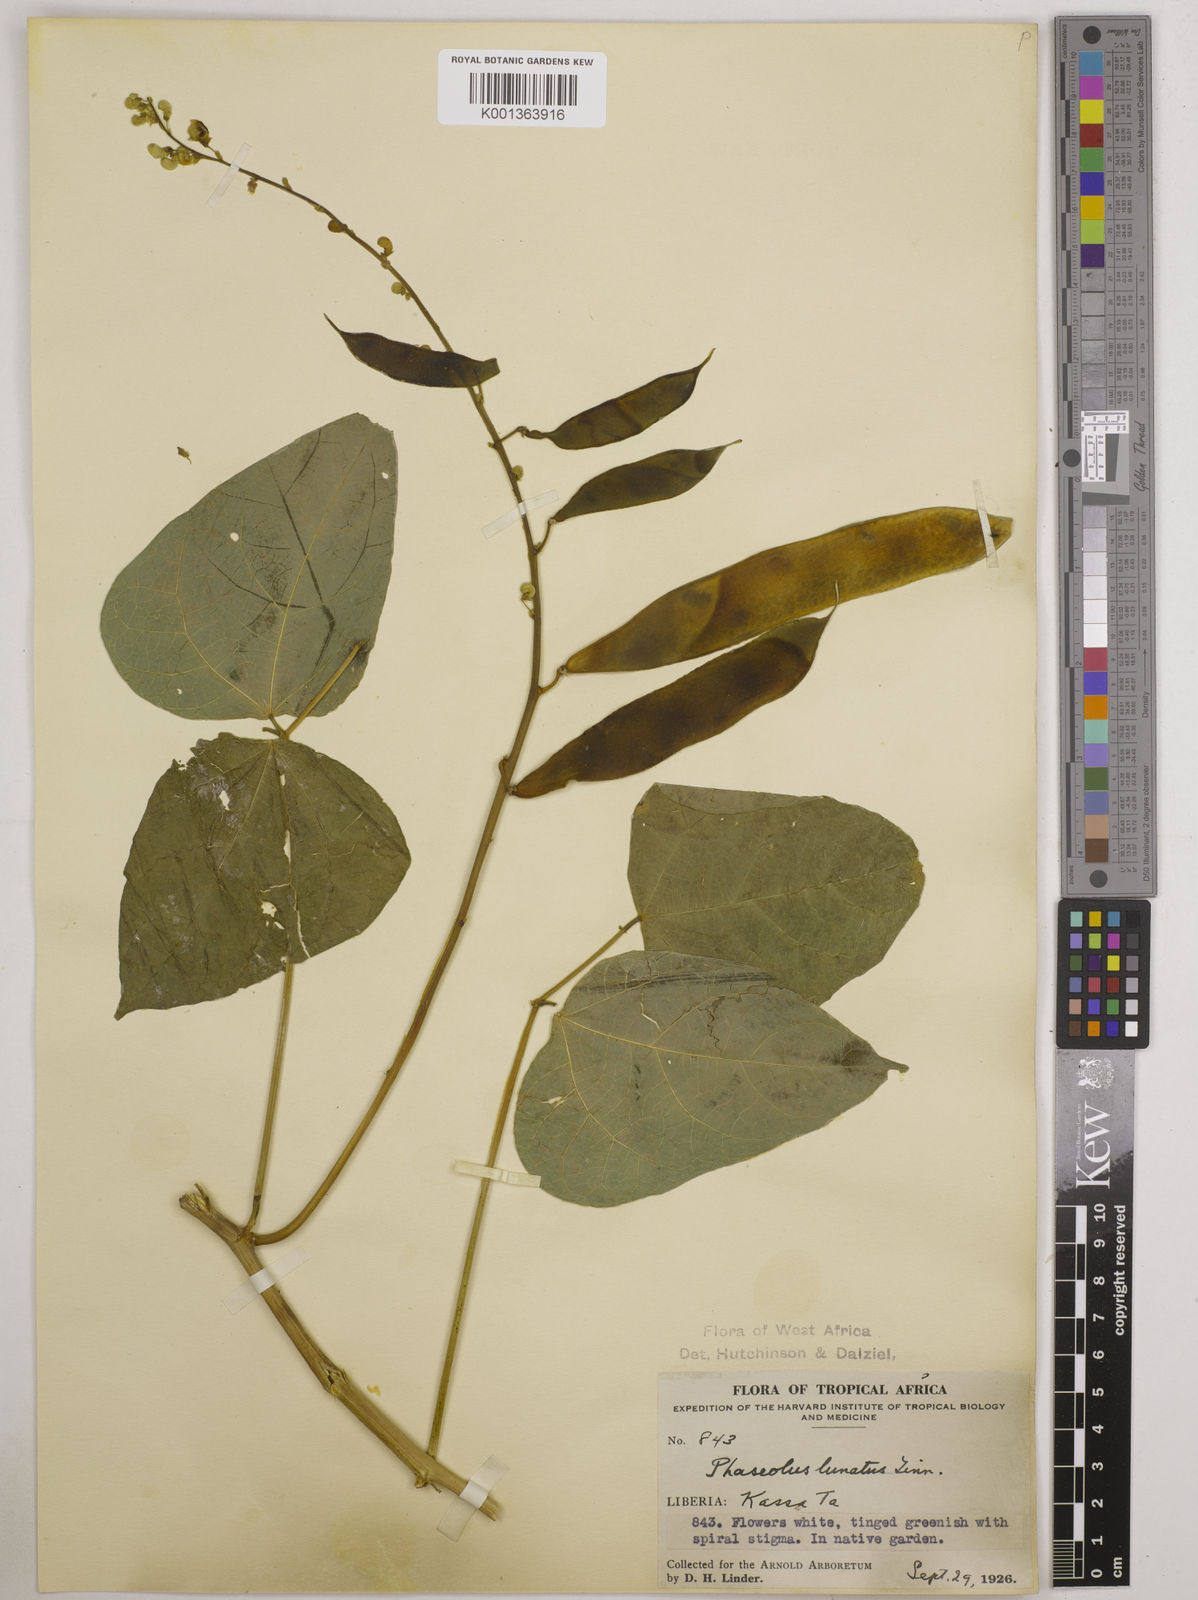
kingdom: Plantae
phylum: Tracheophyta
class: Magnoliopsida
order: Fabales
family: Fabaceae
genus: Phaseolus
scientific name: Phaseolus lunatus
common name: Sieva bean
